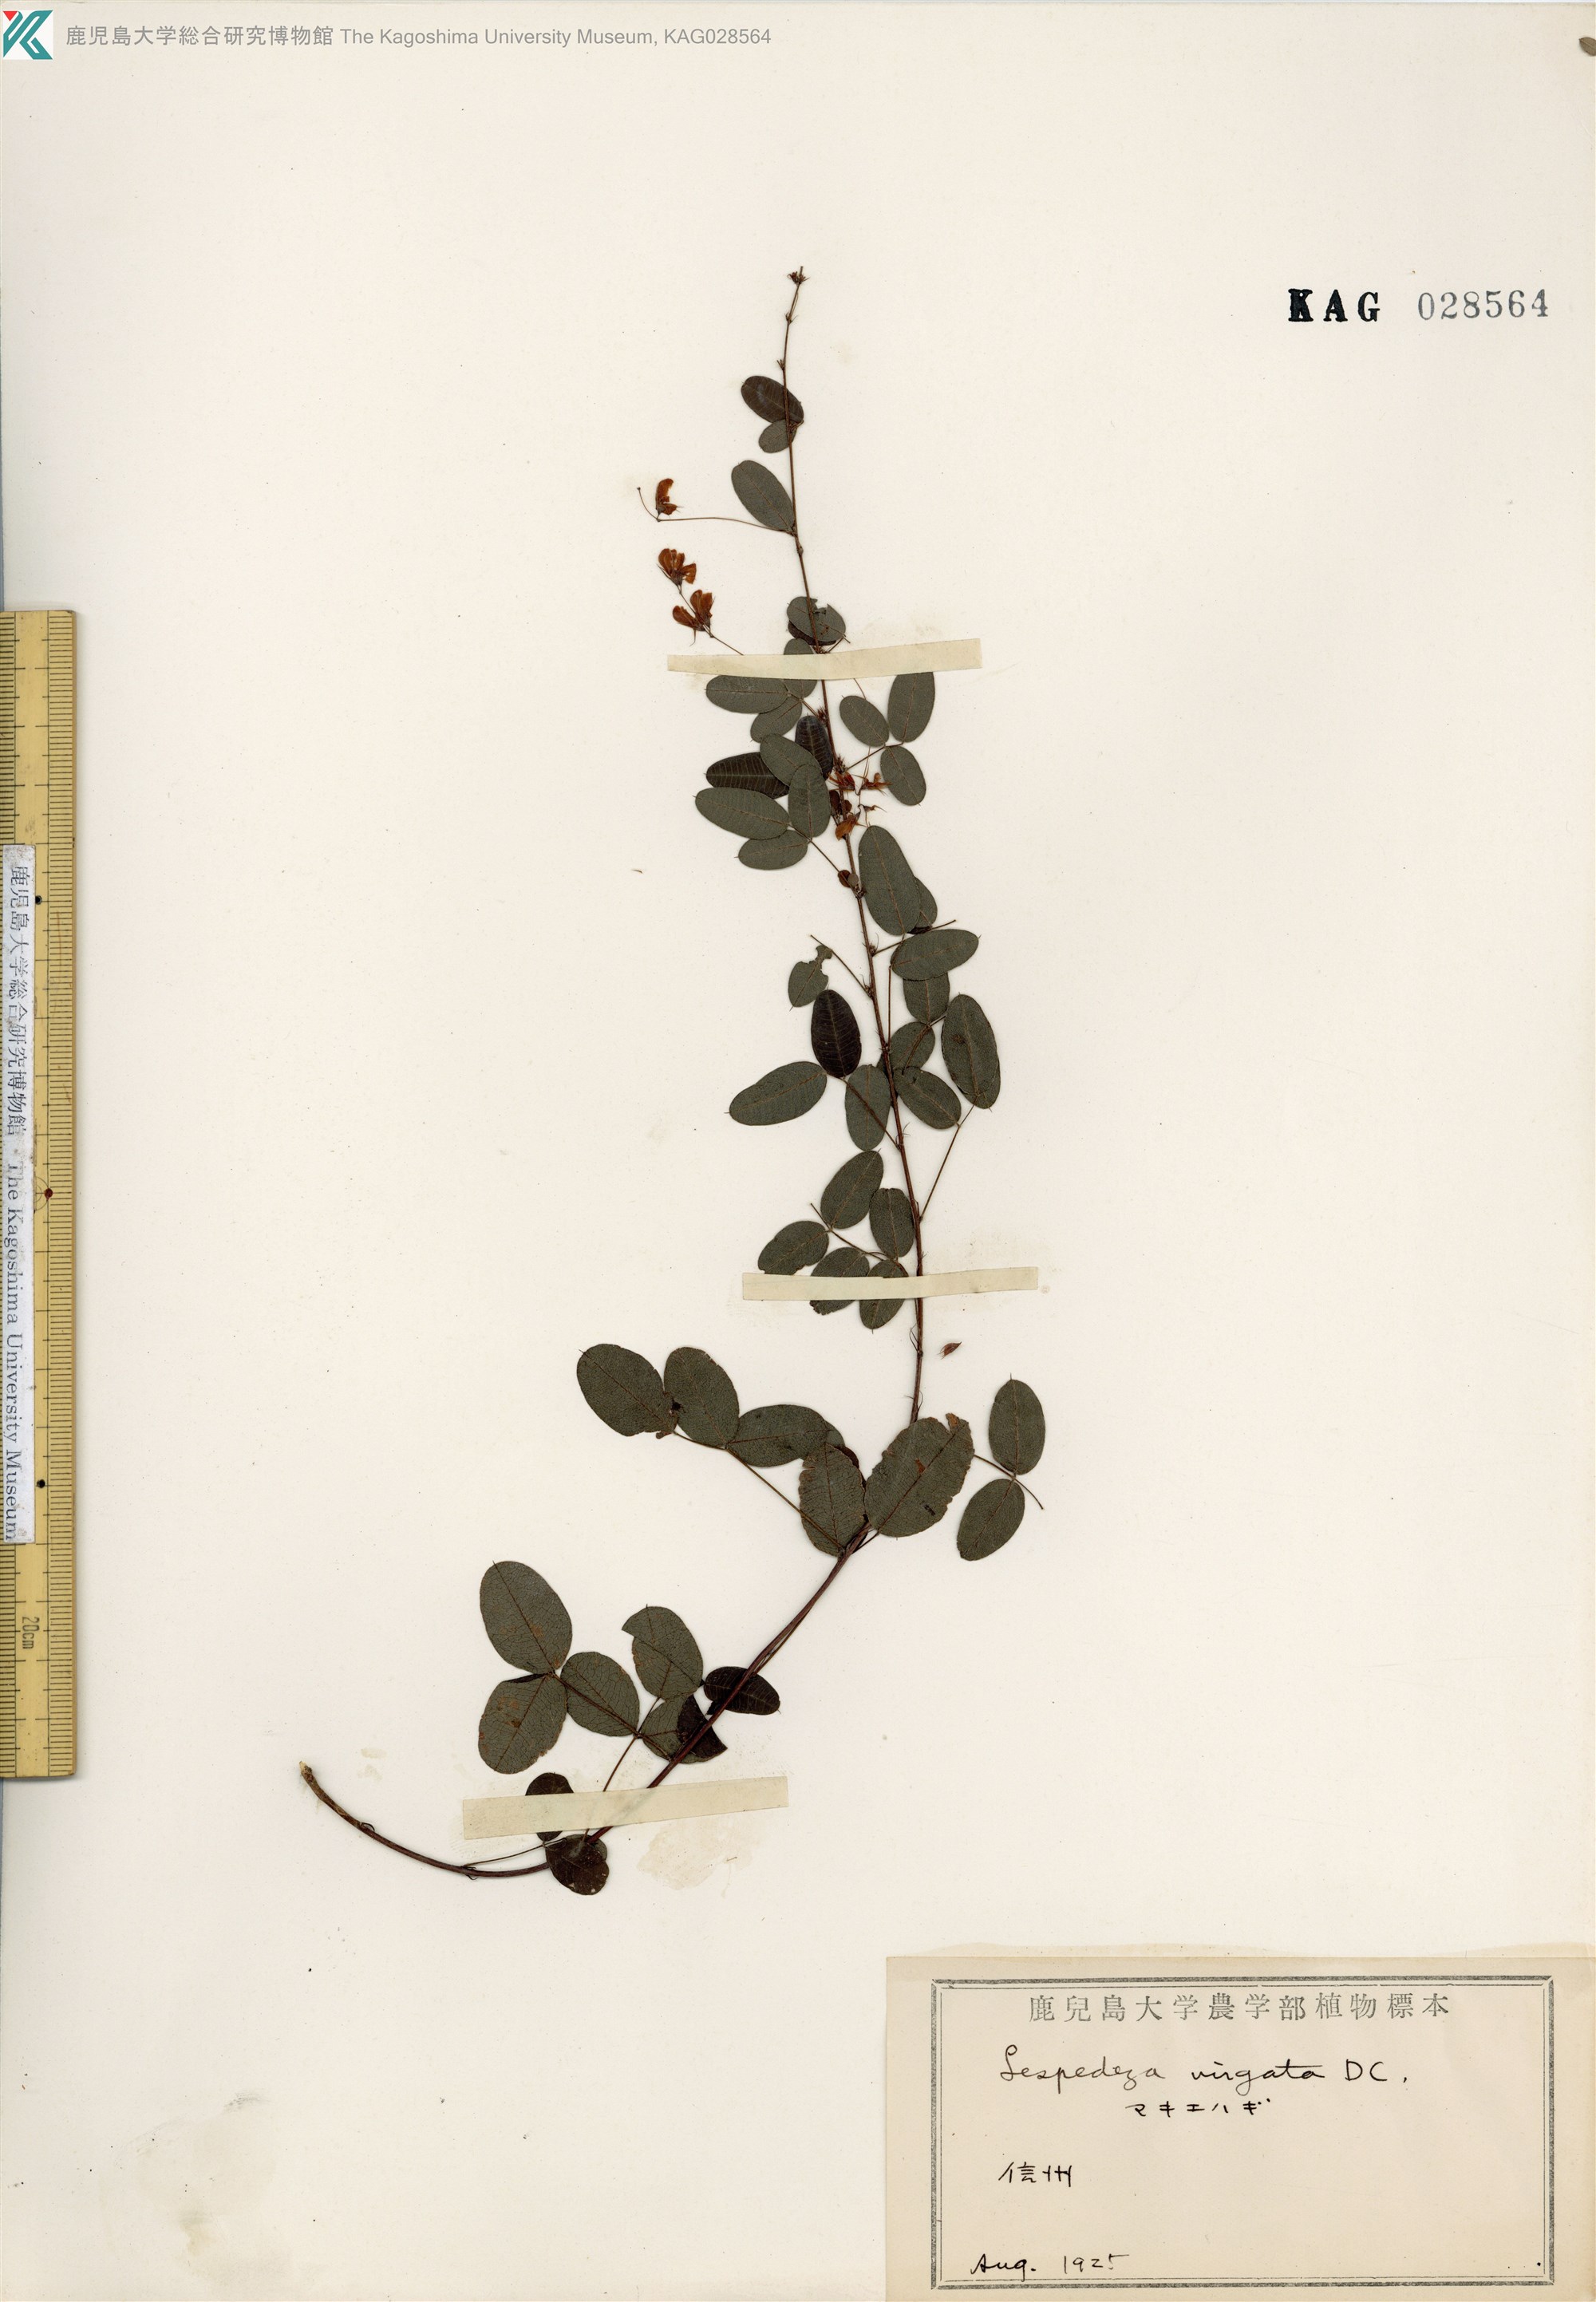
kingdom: Plantae
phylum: Tracheophyta
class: Magnoliopsida
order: Fabales
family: Fabaceae
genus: Lespedeza
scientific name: Lespedeza virgata
